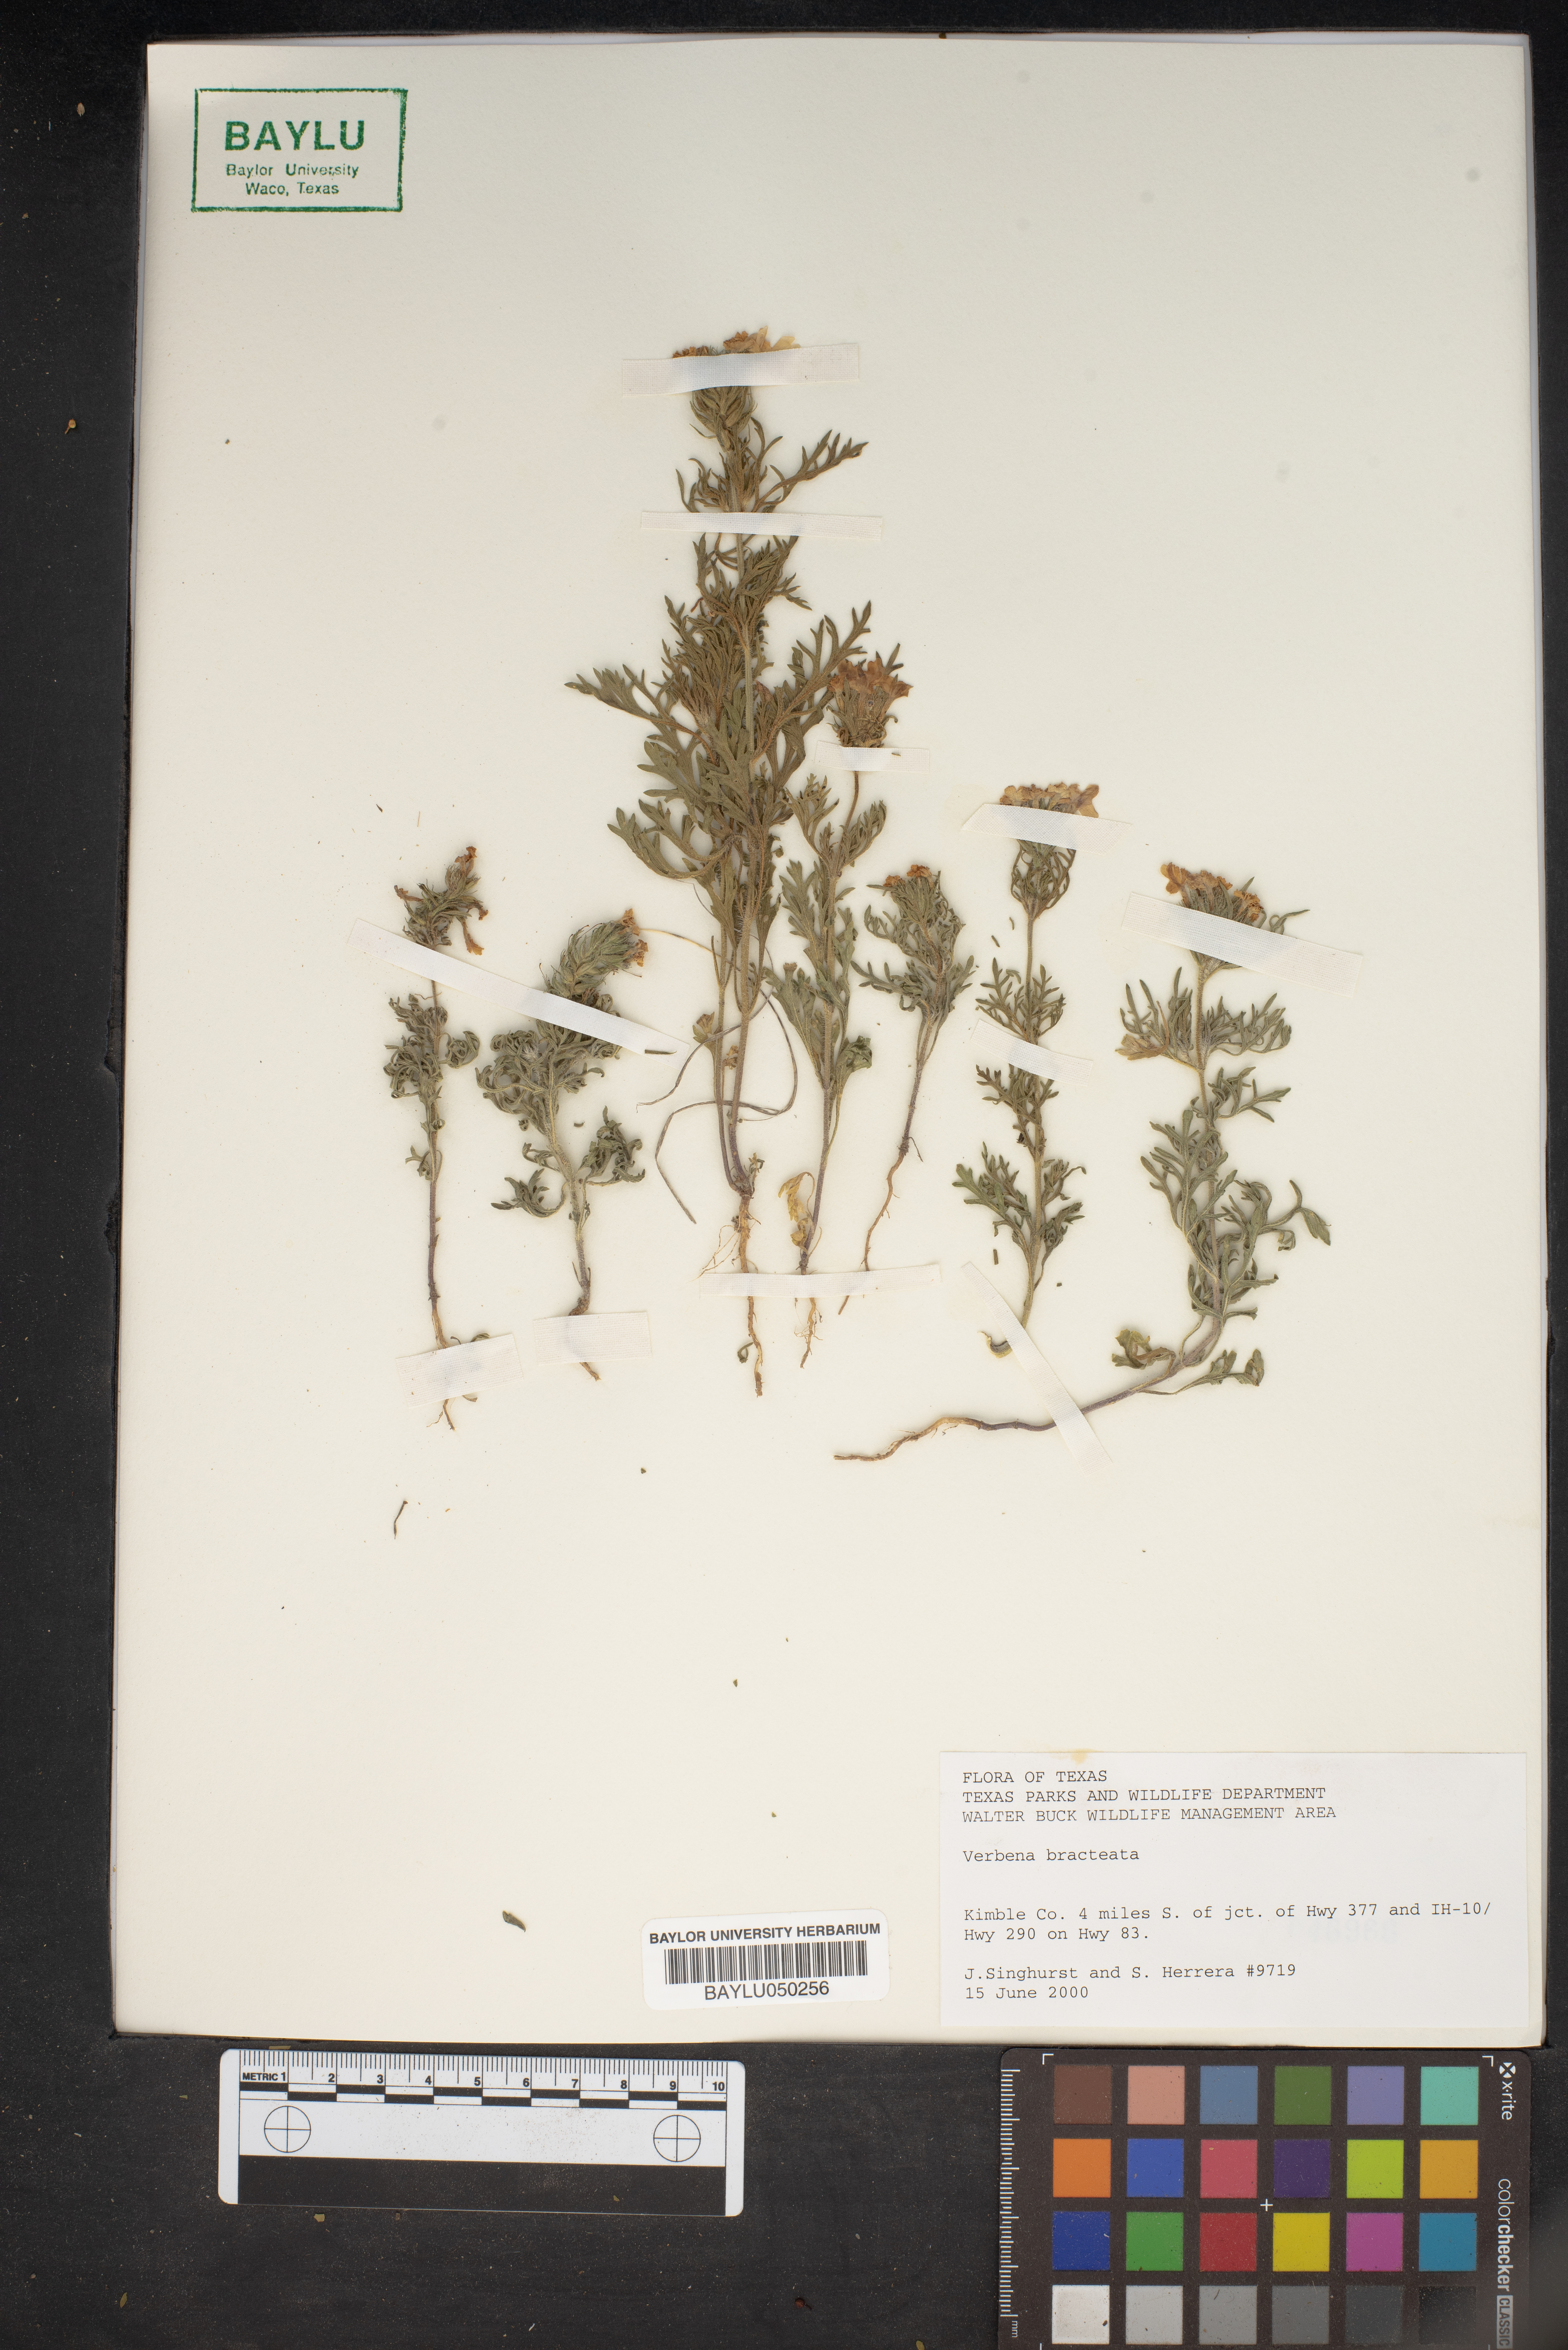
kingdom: Plantae
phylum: Tracheophyta
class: Magnoliopsida
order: Lamiales
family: Verbenaceae
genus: Verbena
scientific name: Verbena bracteata
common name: Bracted vervain
